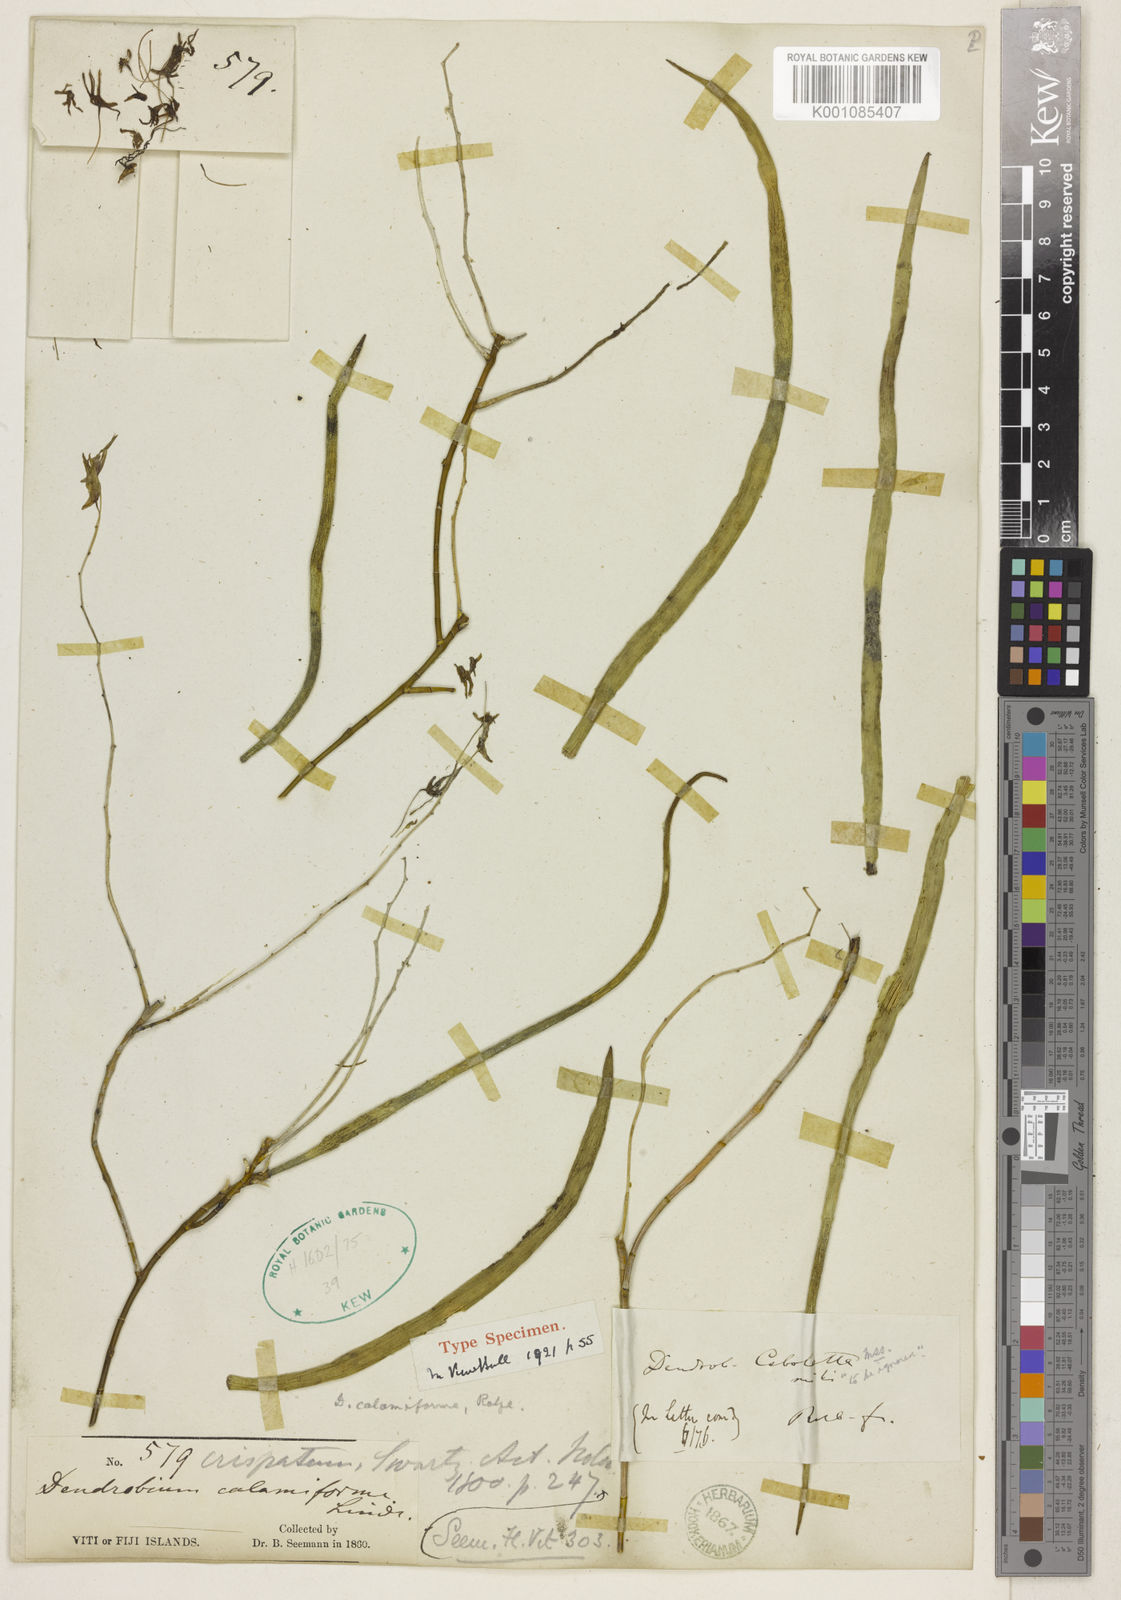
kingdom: Plantae
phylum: Tracheophyta
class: Liliopsida
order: Asparagales
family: Orchidaceae
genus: Dendrobium
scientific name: Dendrobium vagans
